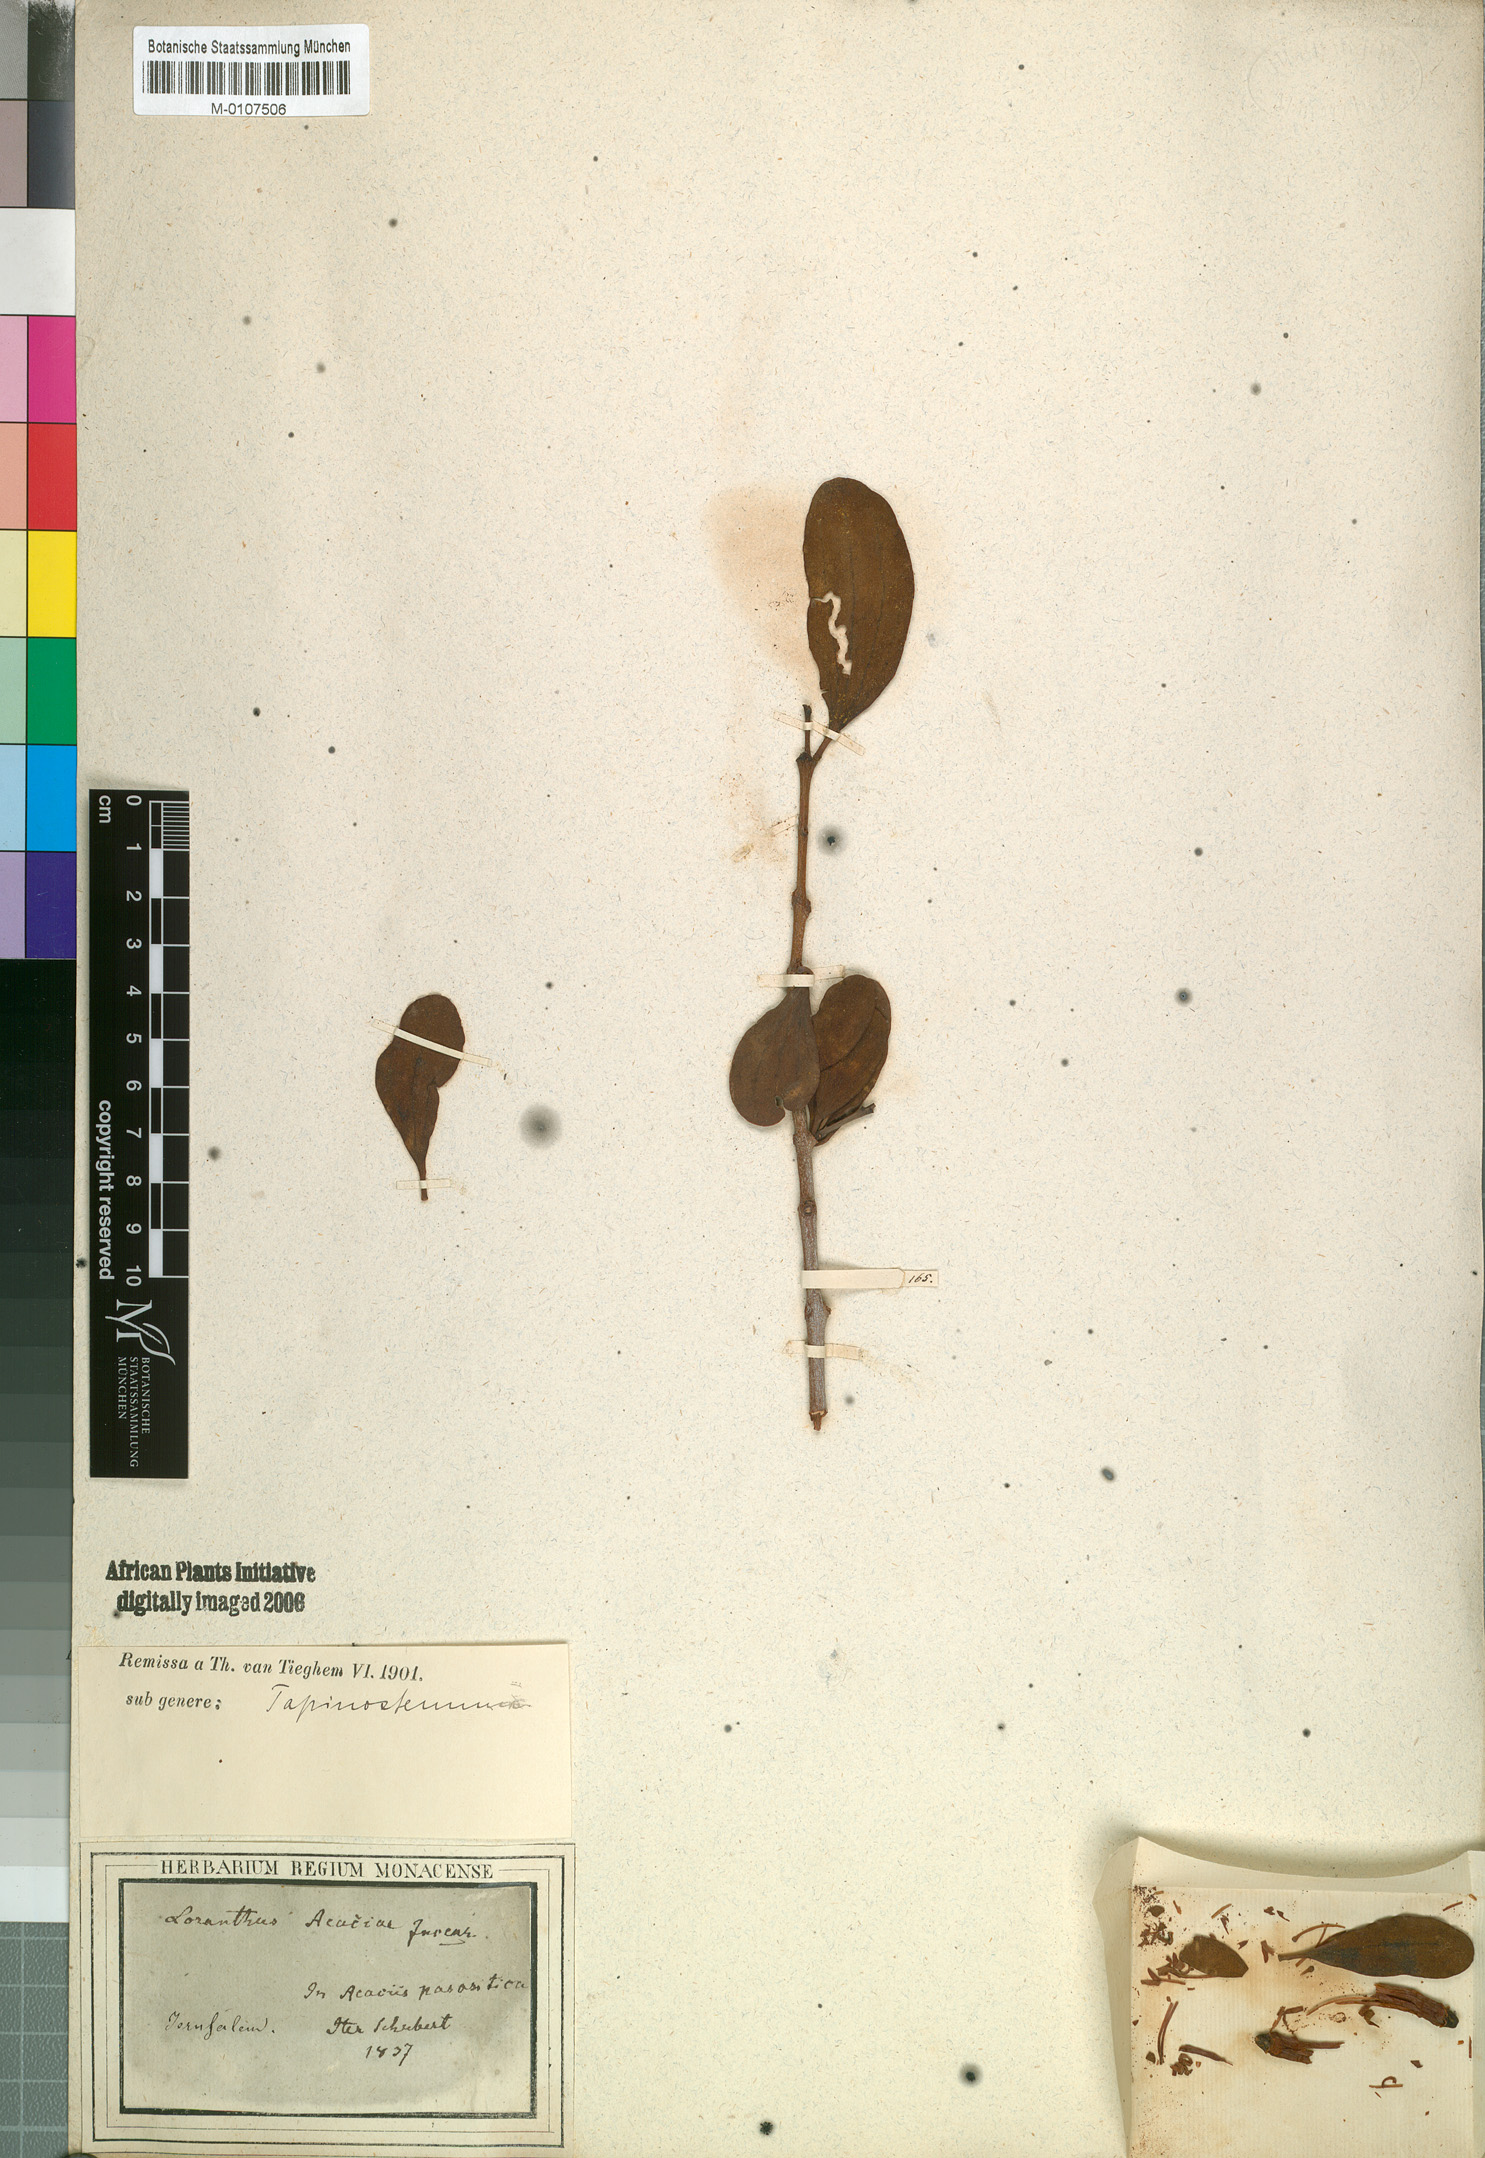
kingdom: Plantae
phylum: Tracheophyta
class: Magnoliopsida
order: Santalales
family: Loranthaceae
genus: Plicosepalus
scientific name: Plicosepalus acaciae
